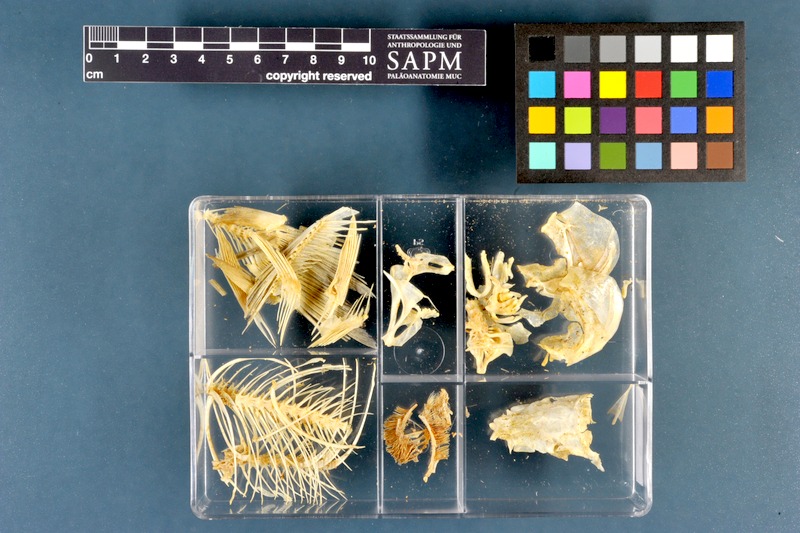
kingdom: Animalia
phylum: Chordata
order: Cypriniformes
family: Cyprinidae
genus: Rutilus
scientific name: Rutilus rutilus
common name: Roach
